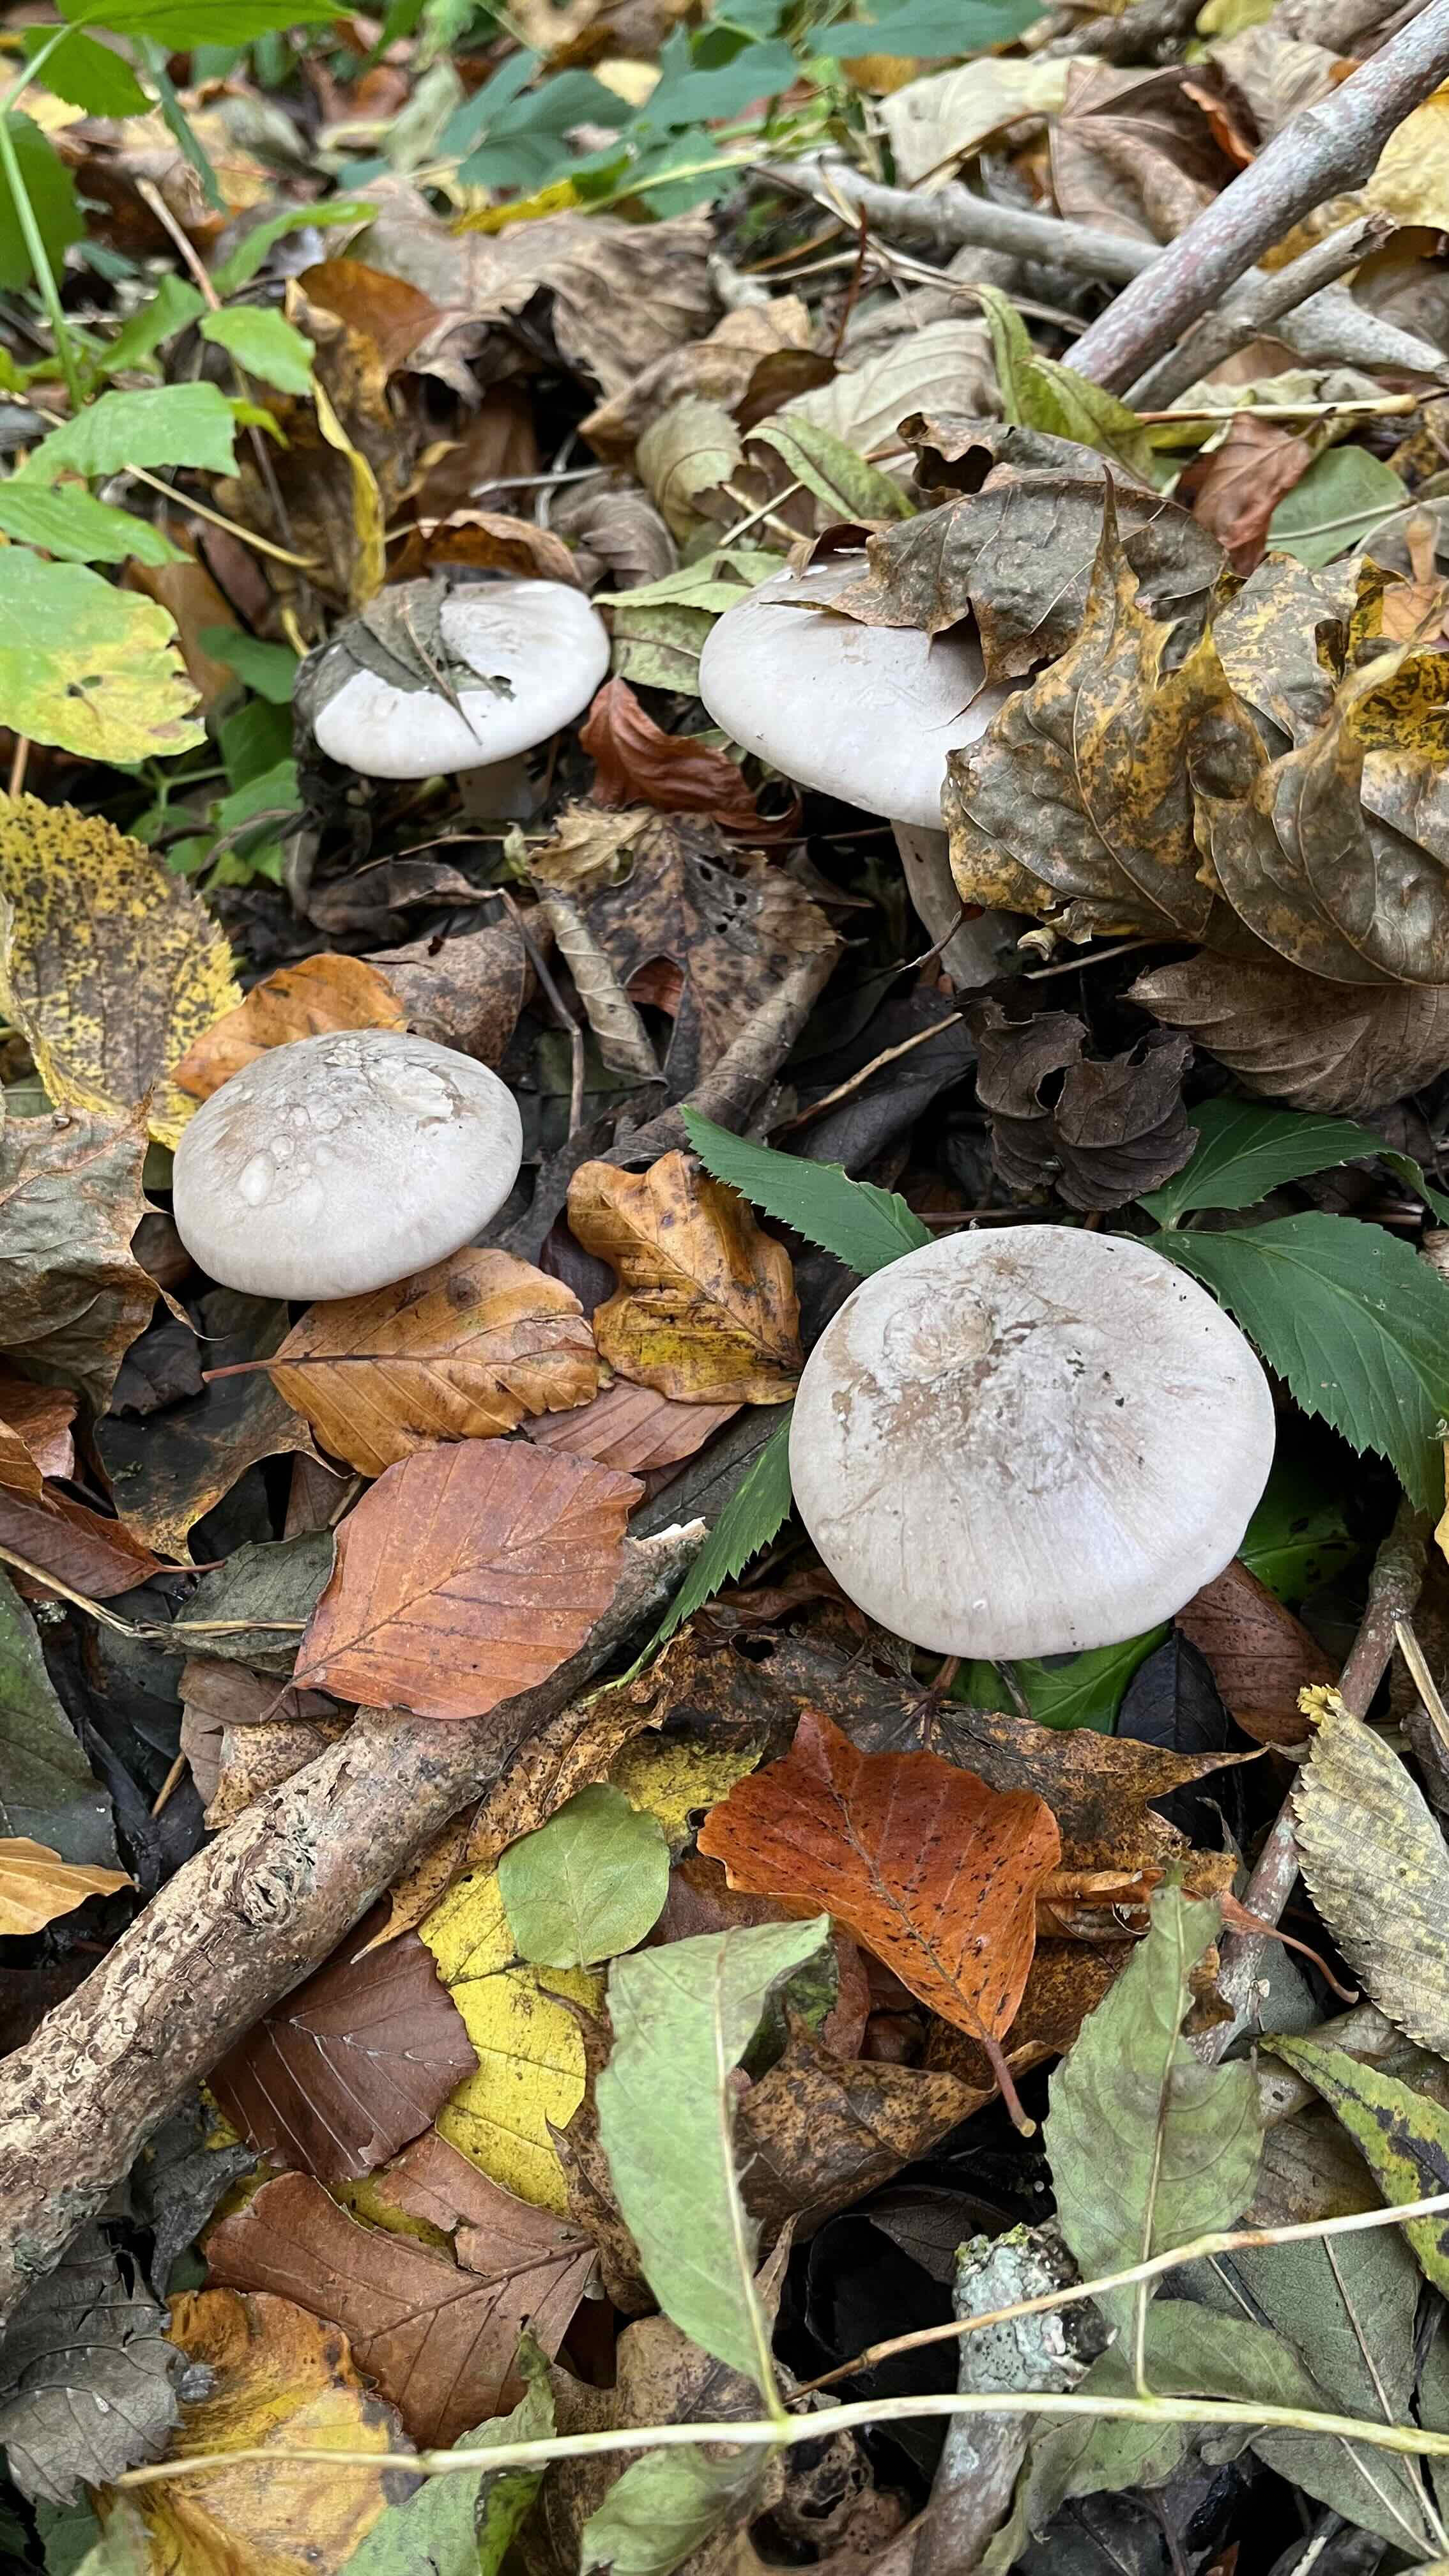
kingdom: Fungi
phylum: Basidiomycota
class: Agaricomycetes
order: Agaricales
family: Tricholomataceae
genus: Clitocybe
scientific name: Clitocybe nebularis
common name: tåge-tragthat
